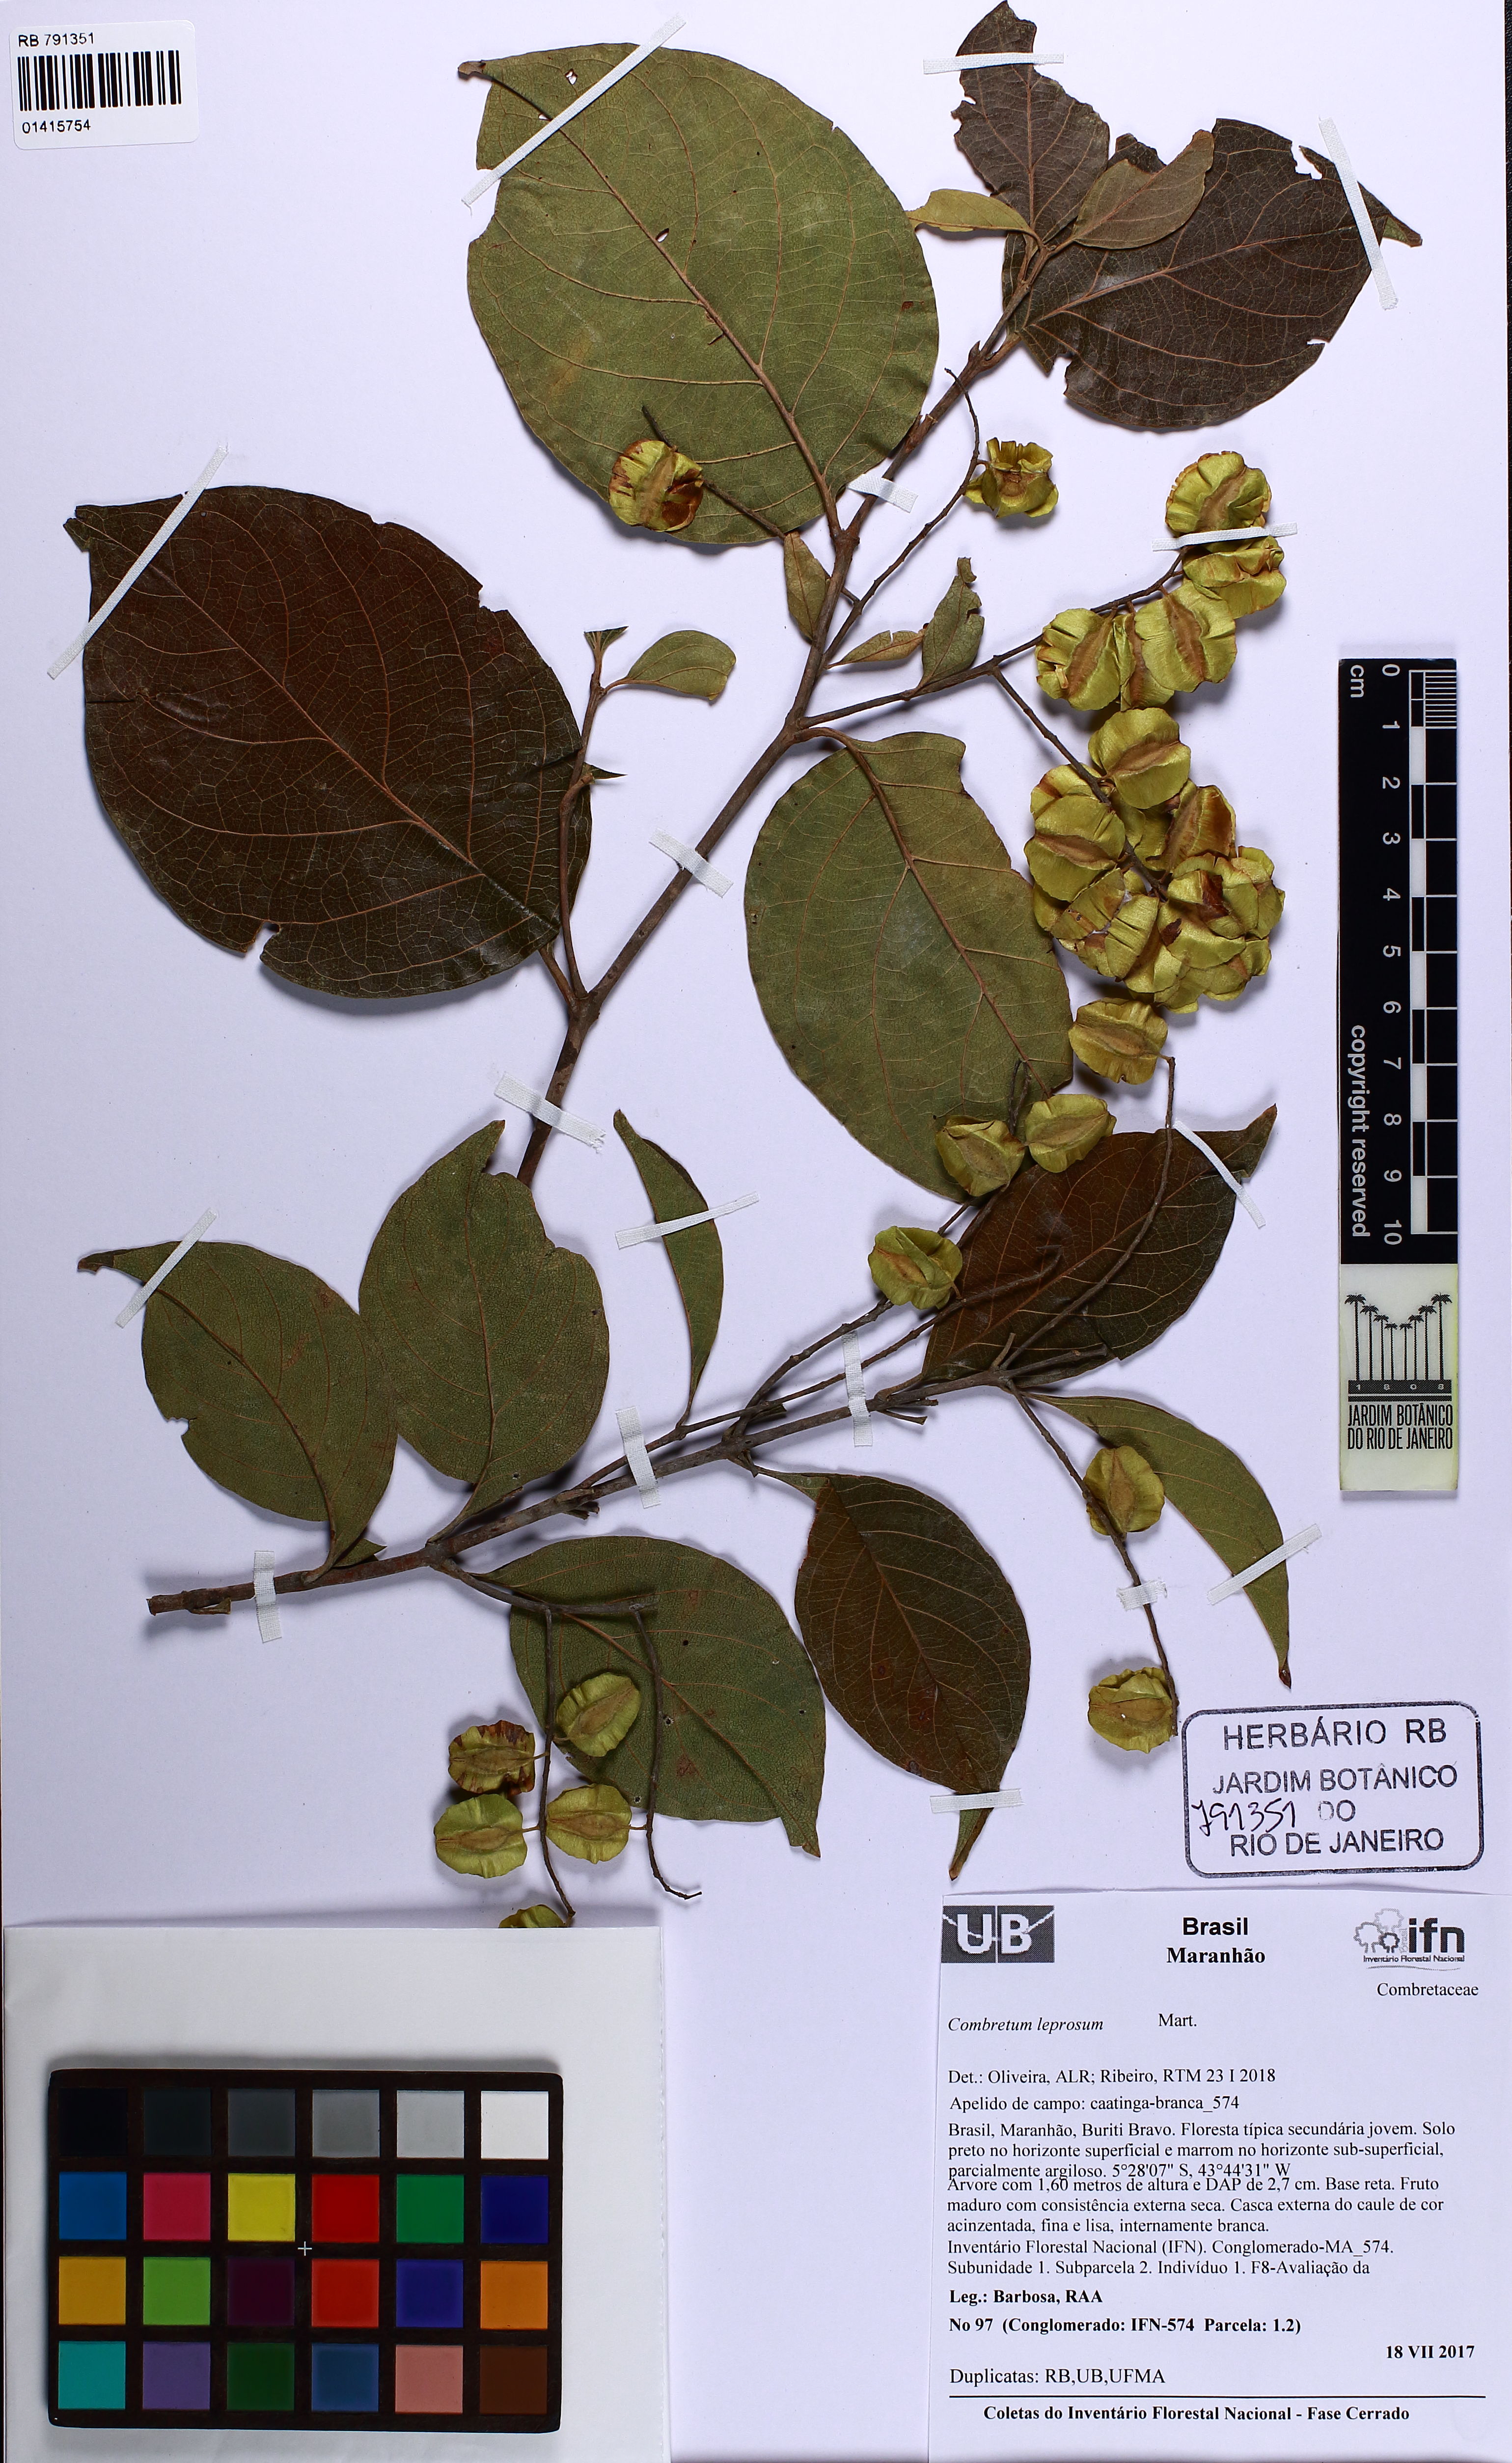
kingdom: Plantae
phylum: Tracheophyta
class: Magnoliopsida
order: Myrtales
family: Combretaceae
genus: Combretum
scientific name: Combretum leprosum
